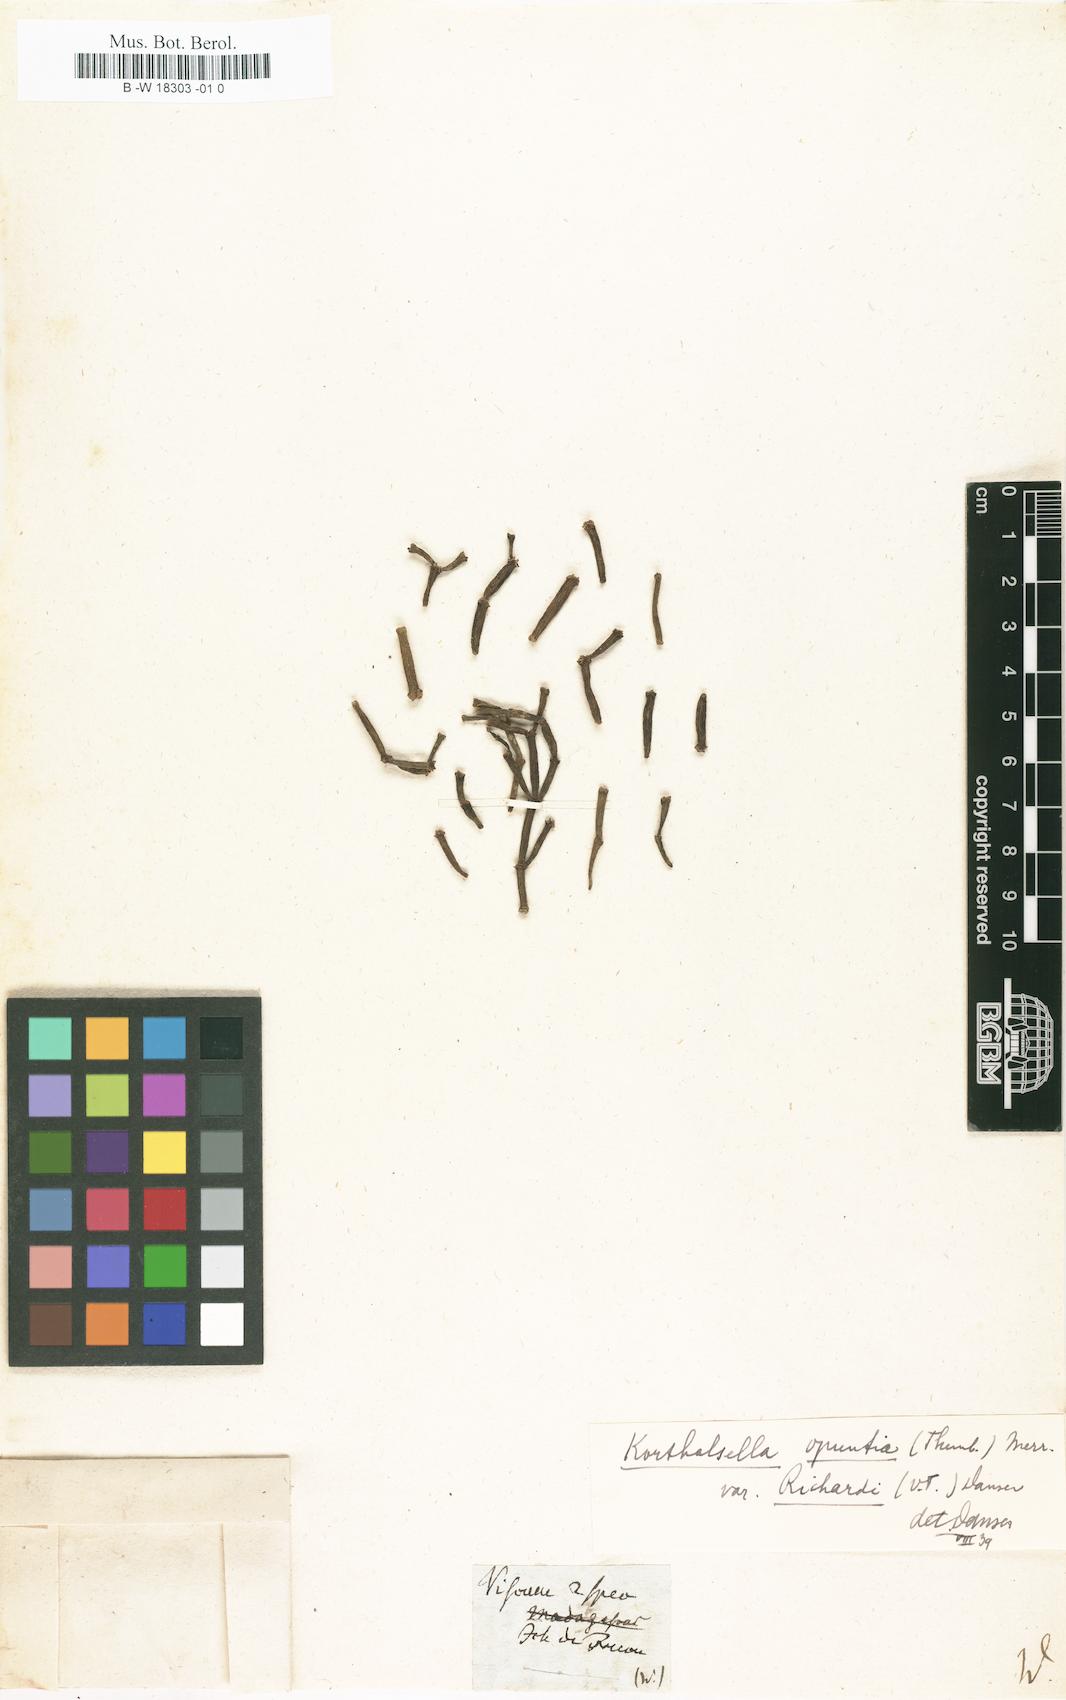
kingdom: Plantae
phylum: Tracheophyta
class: Magnoliopsida
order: Santalales
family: Viscaceae
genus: Viscum
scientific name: Viscum
